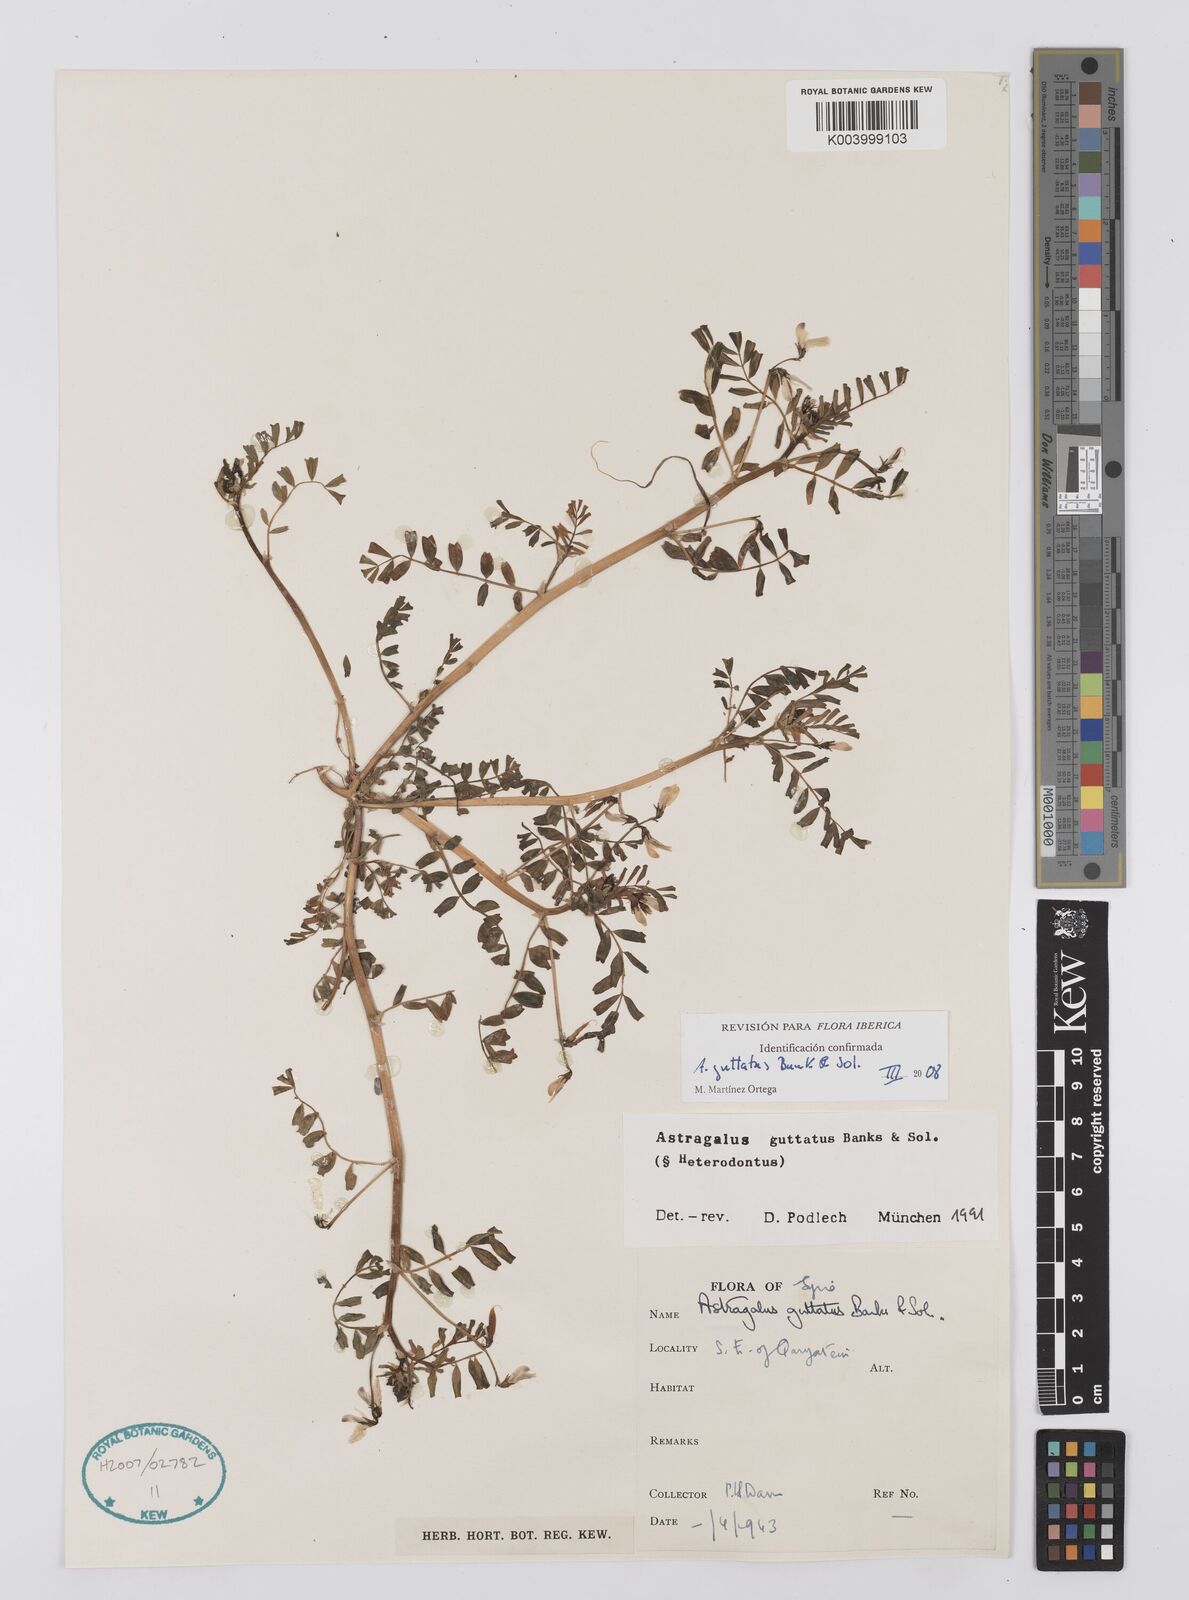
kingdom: Plantae
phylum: Tracheophyta
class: Magnoliopsida
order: Fabales
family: Fabaceae
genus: Astragalus
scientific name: Astragalus guttatus
